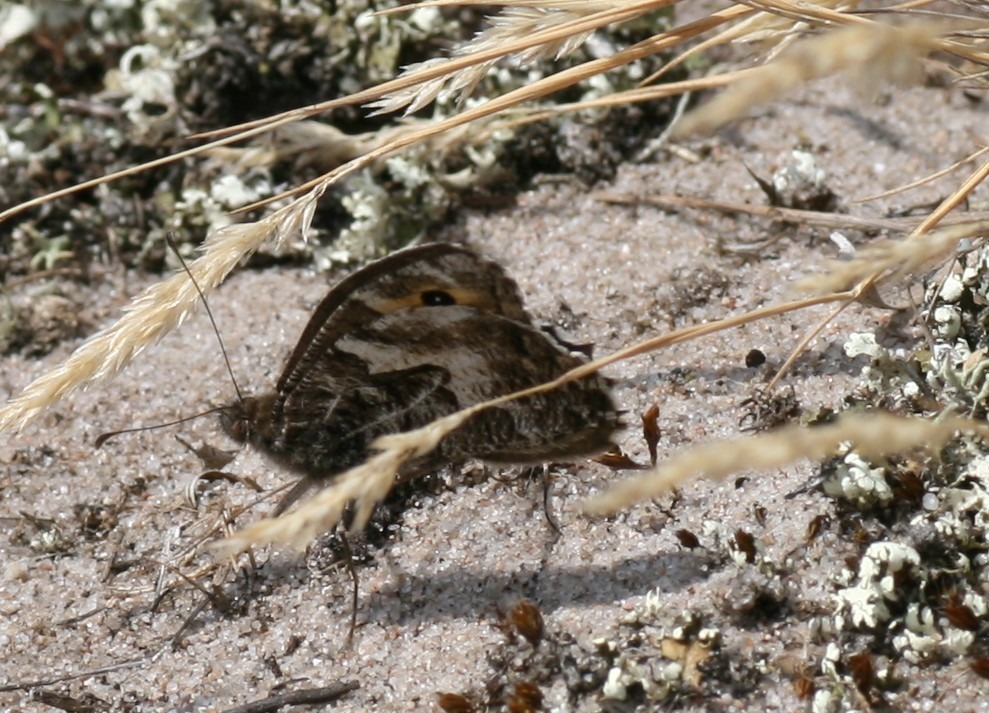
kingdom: Animalia
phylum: Arthropoda
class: Insecta
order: Lepidoptera
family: Nymphalidae
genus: Hipparchia
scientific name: Hipparchia semele
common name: Sandrandøje
